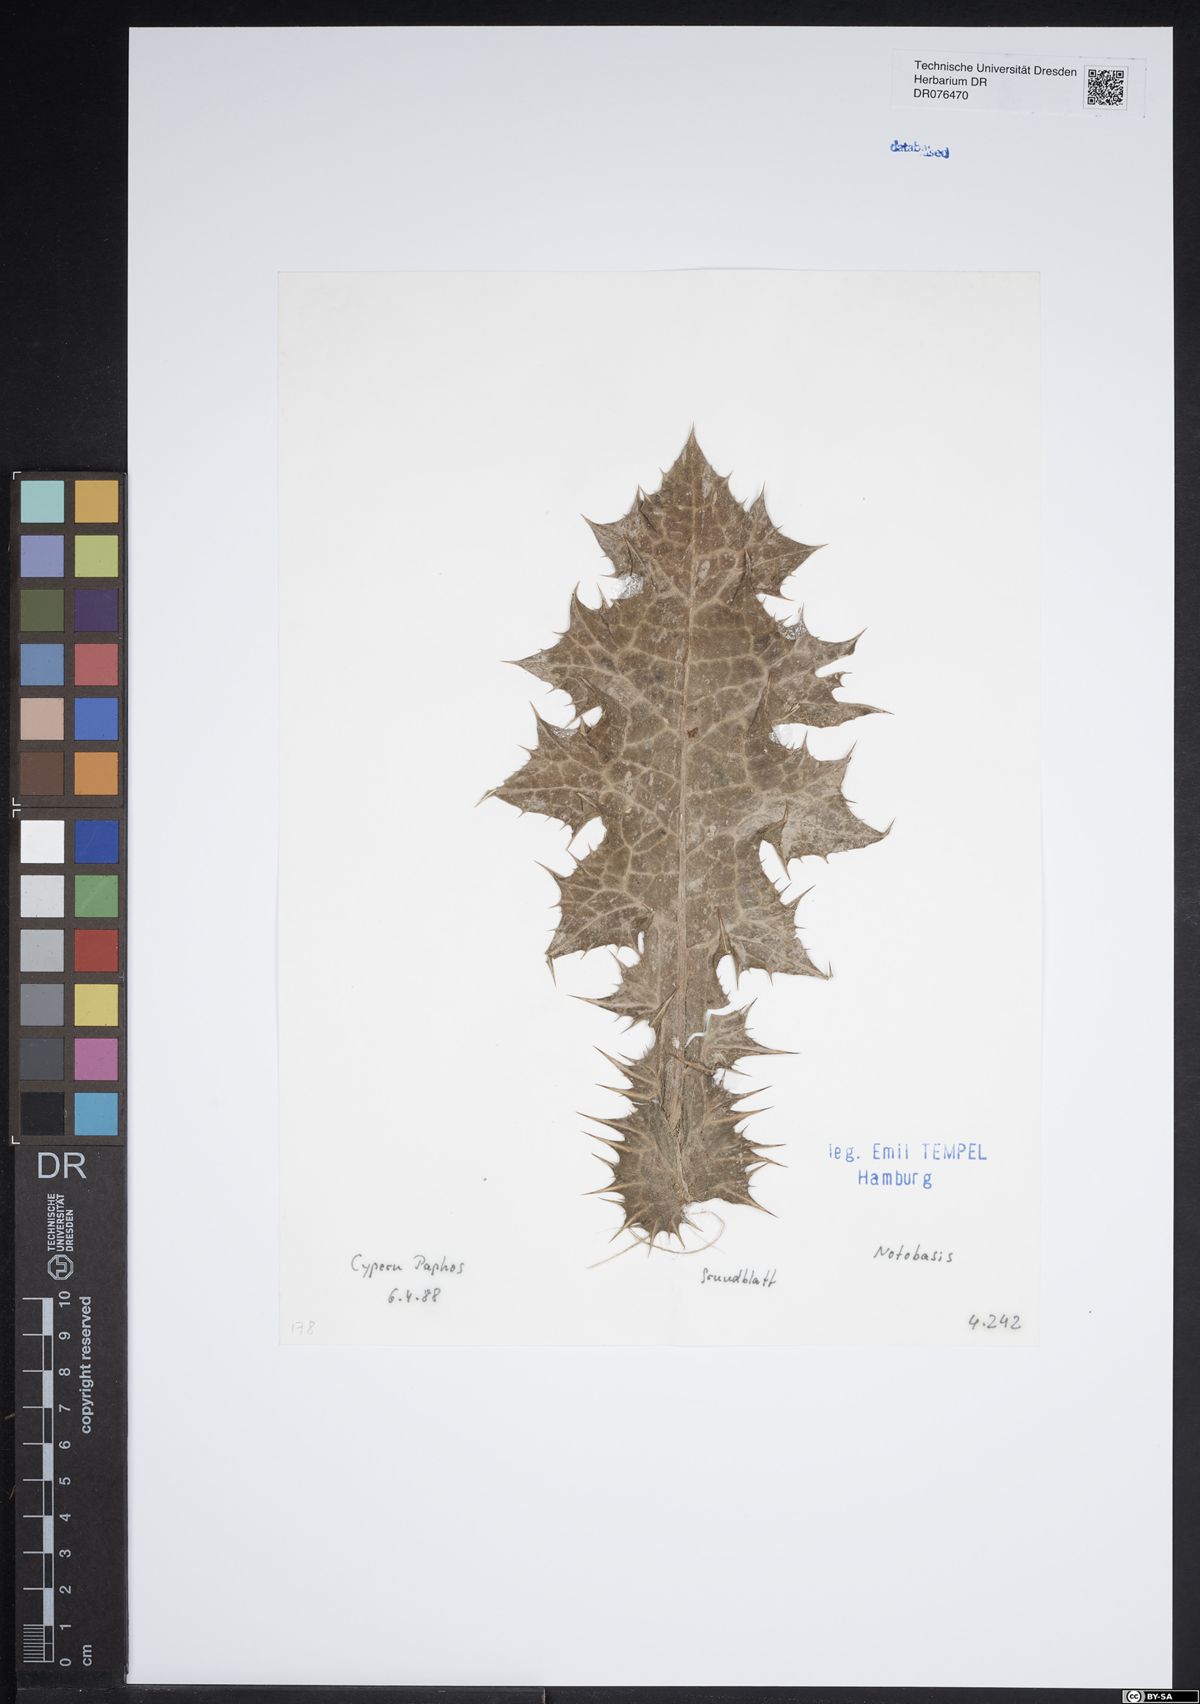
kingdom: Plantae
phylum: Tracheophyta
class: Magnoliopsida
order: Asterales
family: Asteraceae
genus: Notobasis
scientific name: Notobasis
